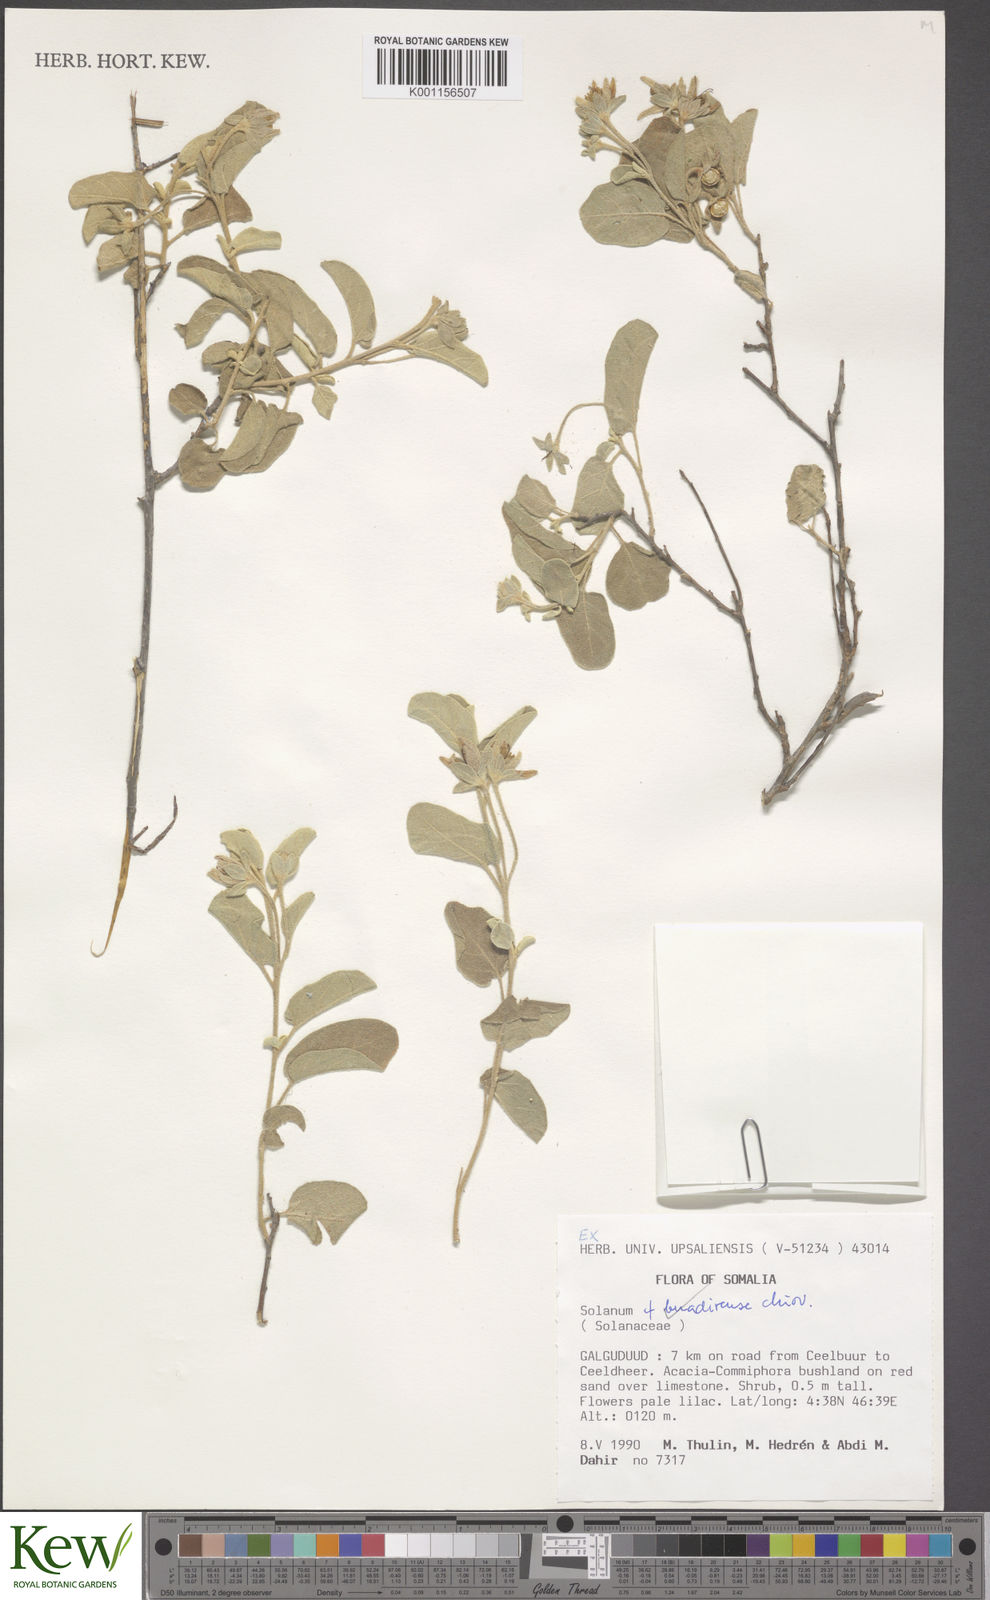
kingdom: Plantae
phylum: Tracheophyta
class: Magnoliopsida
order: Solanales
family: Solanaceae
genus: Solanum
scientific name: Solanum pampaninii
